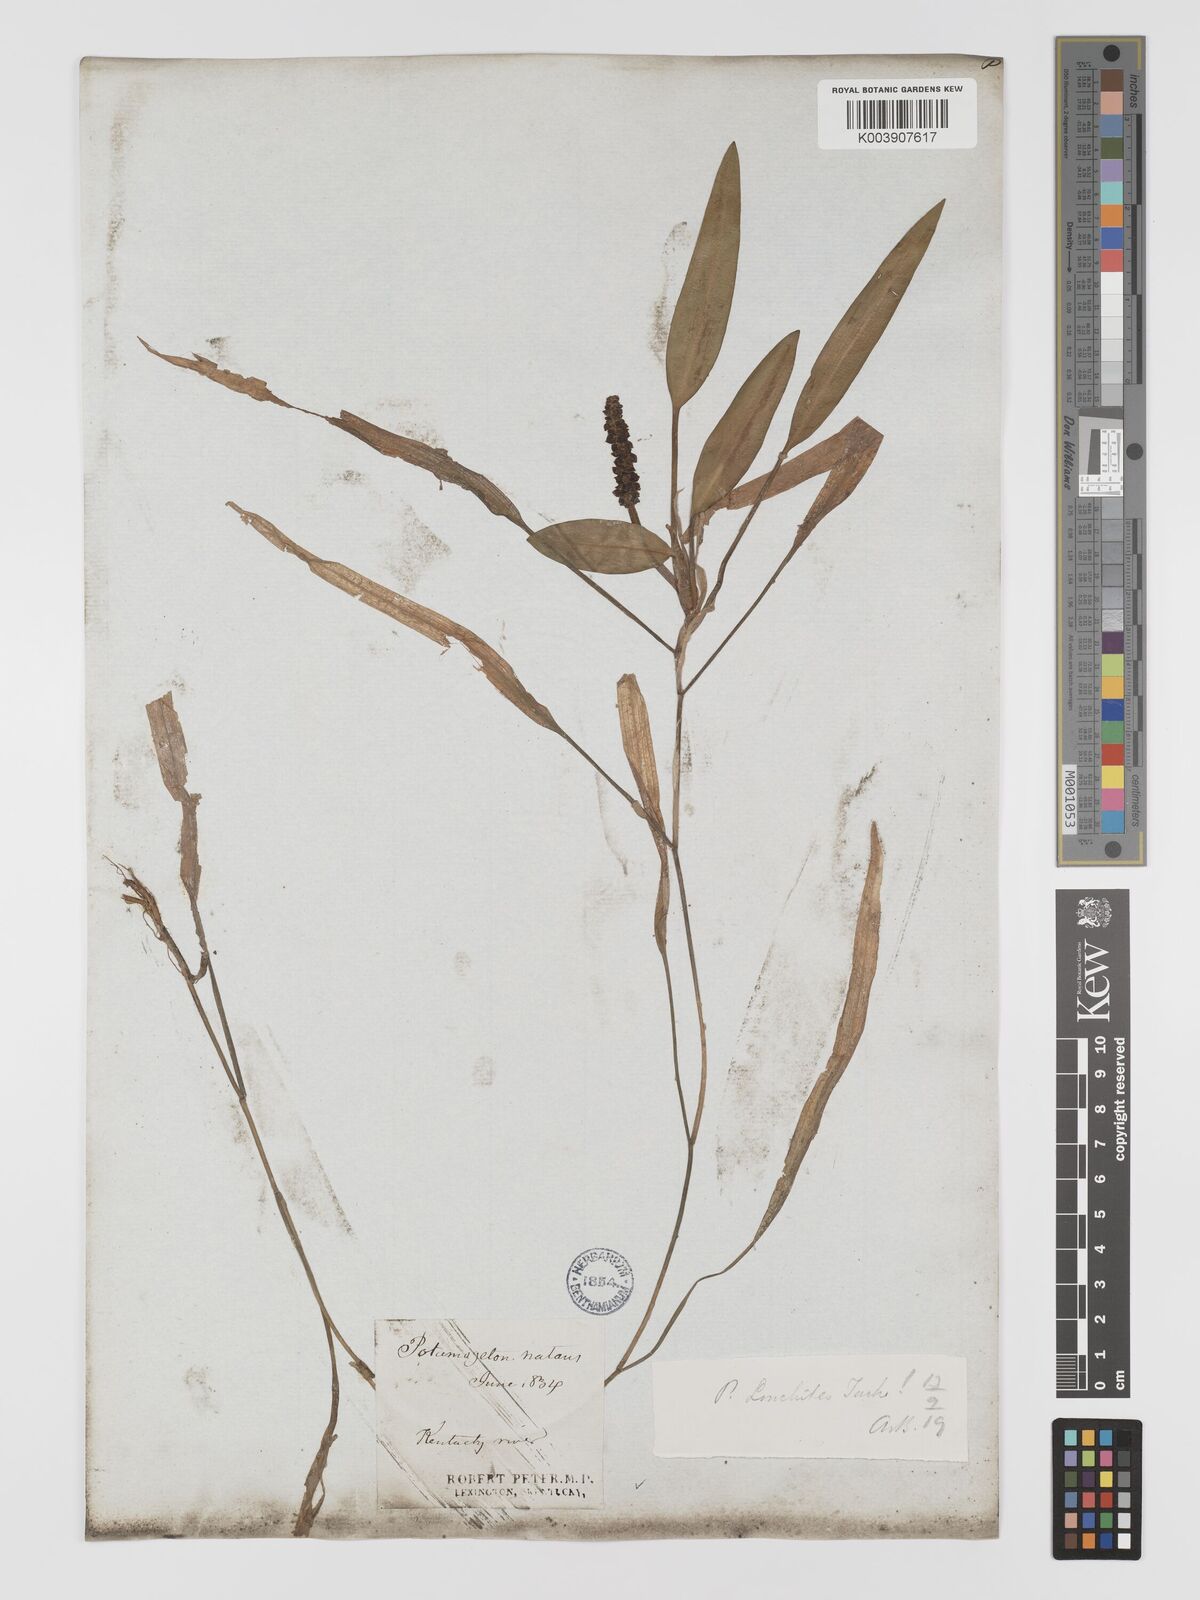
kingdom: Plantae
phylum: Tracheophyta
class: Liliopsida
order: Alismatales
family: Potamogetonaceae
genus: Potamogeton
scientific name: Potamogeton nodosus
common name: Loddon pondweed
